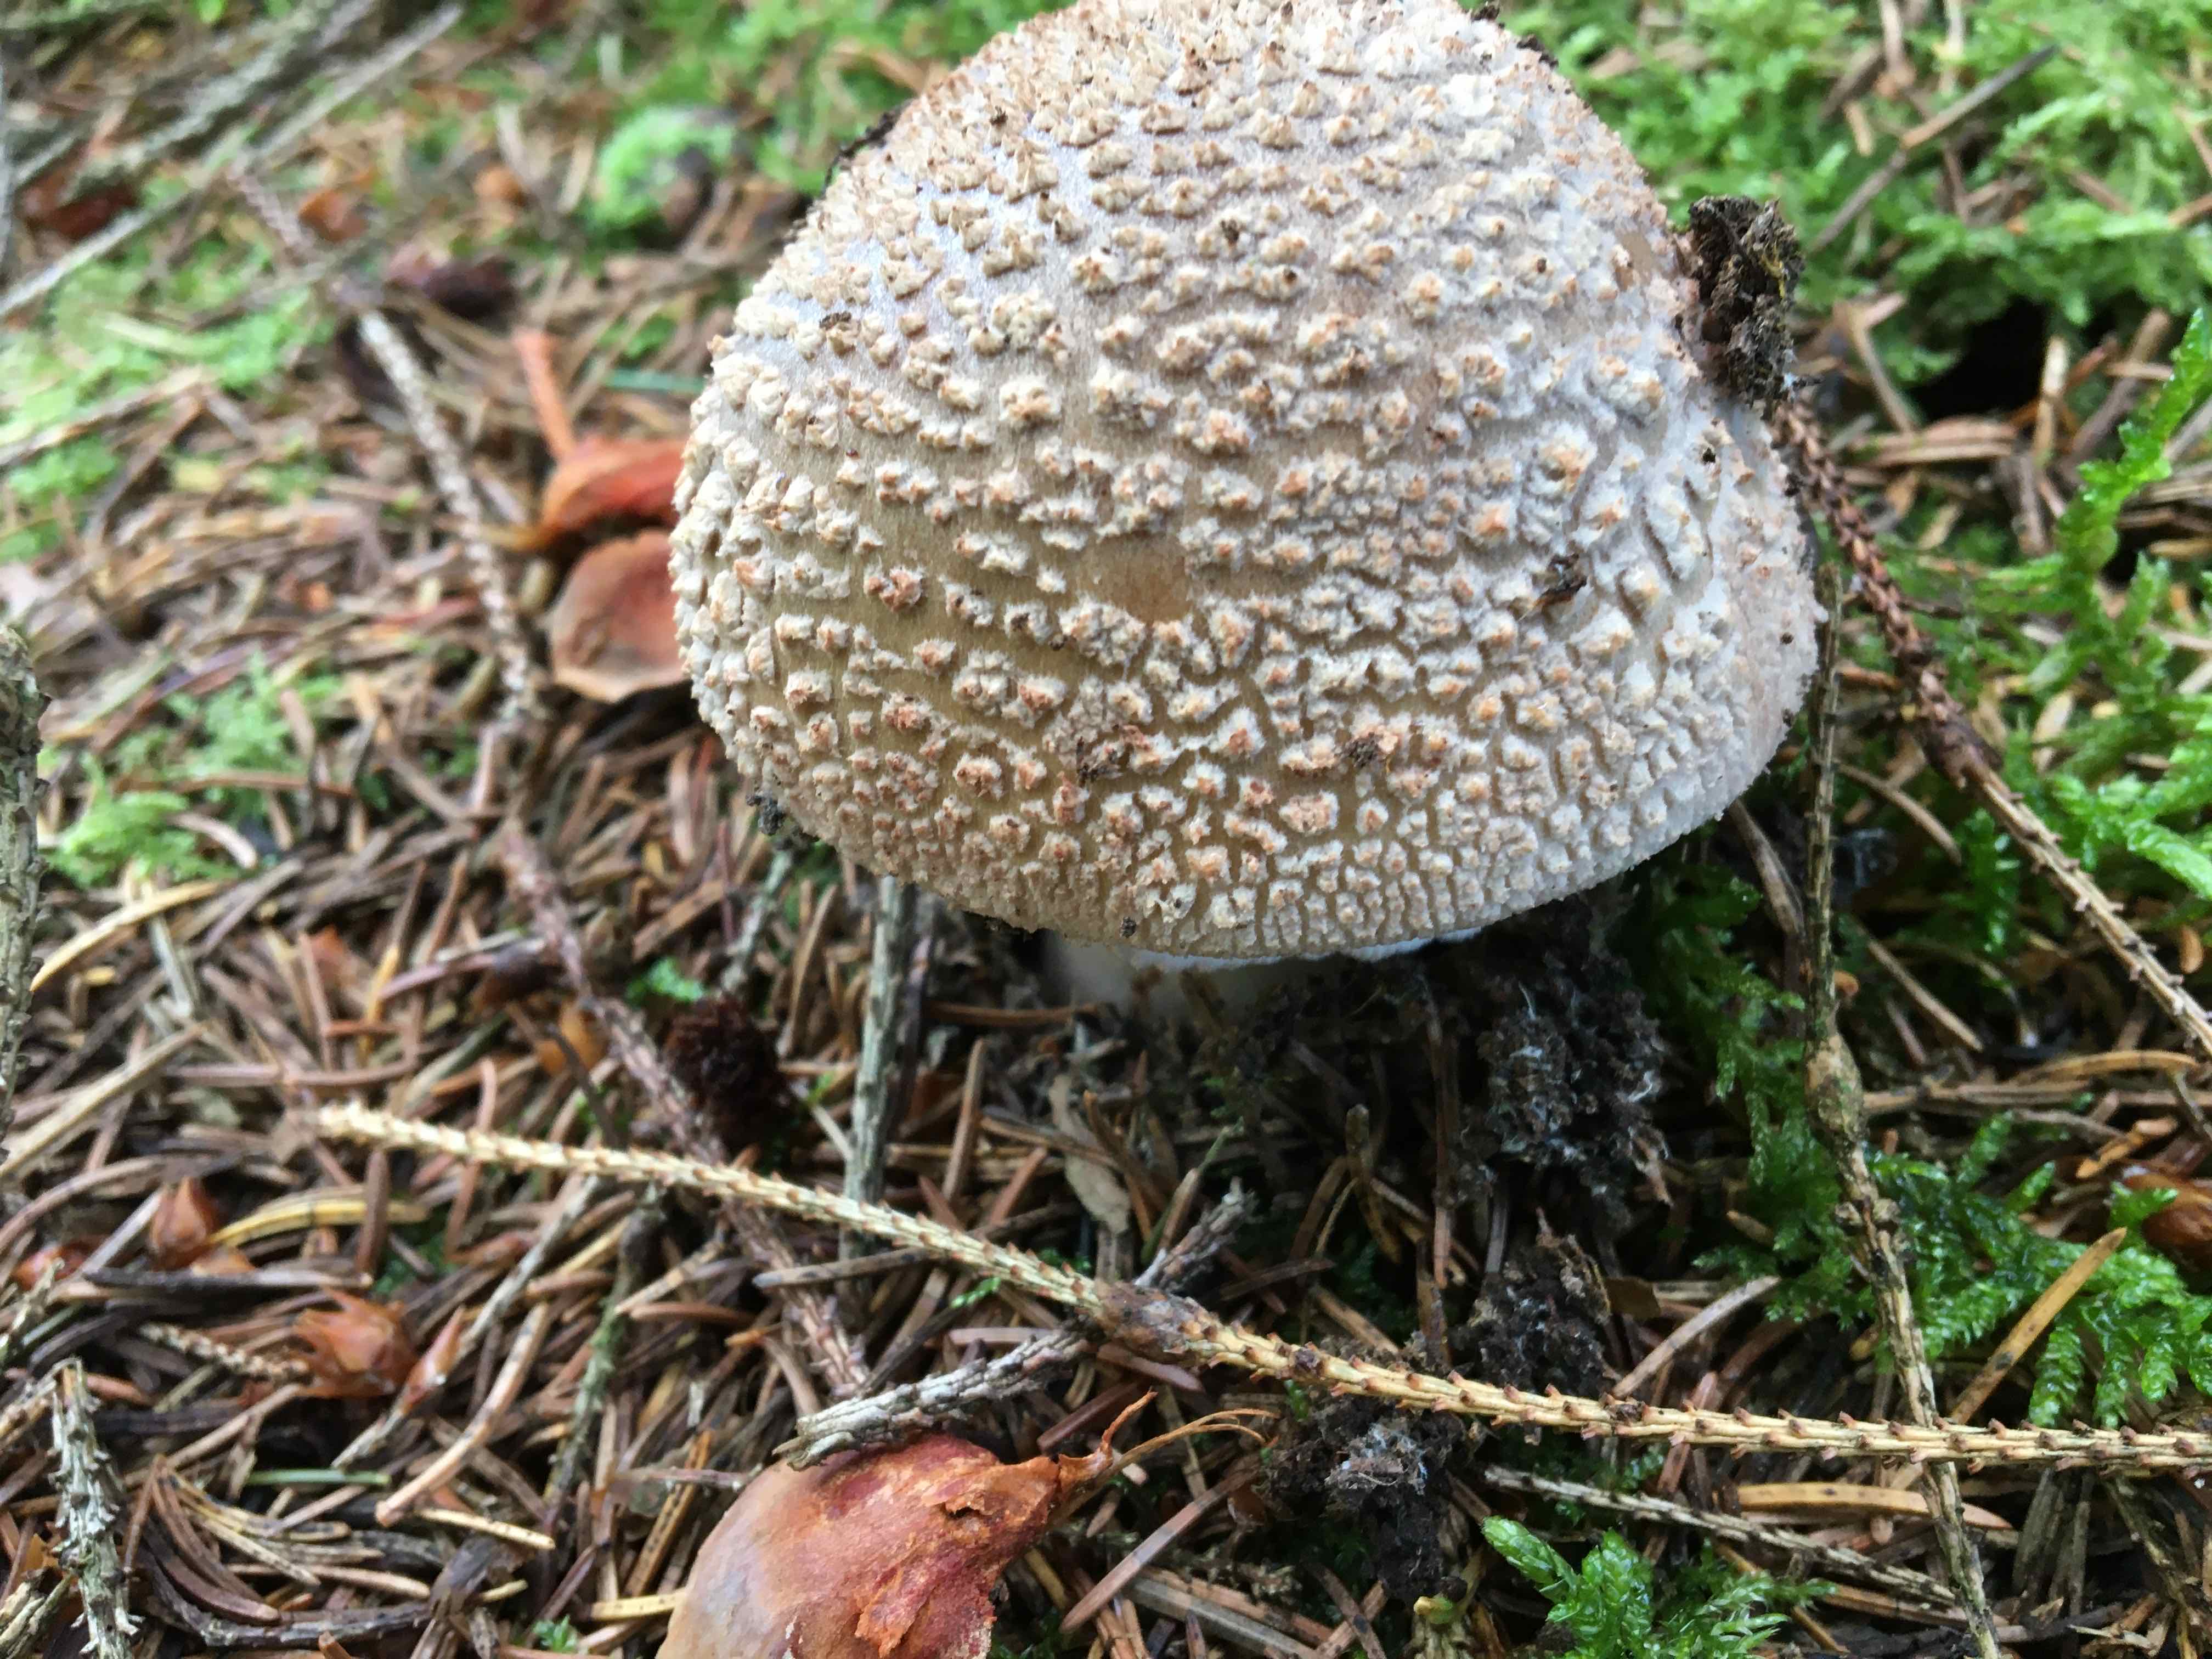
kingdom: Fungi
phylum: Basidiomycota
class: Agaricomycetes
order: Agaricales
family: Amanitaceae
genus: Amanita
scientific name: Amanita rubescens
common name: rødmende fluesvamp
